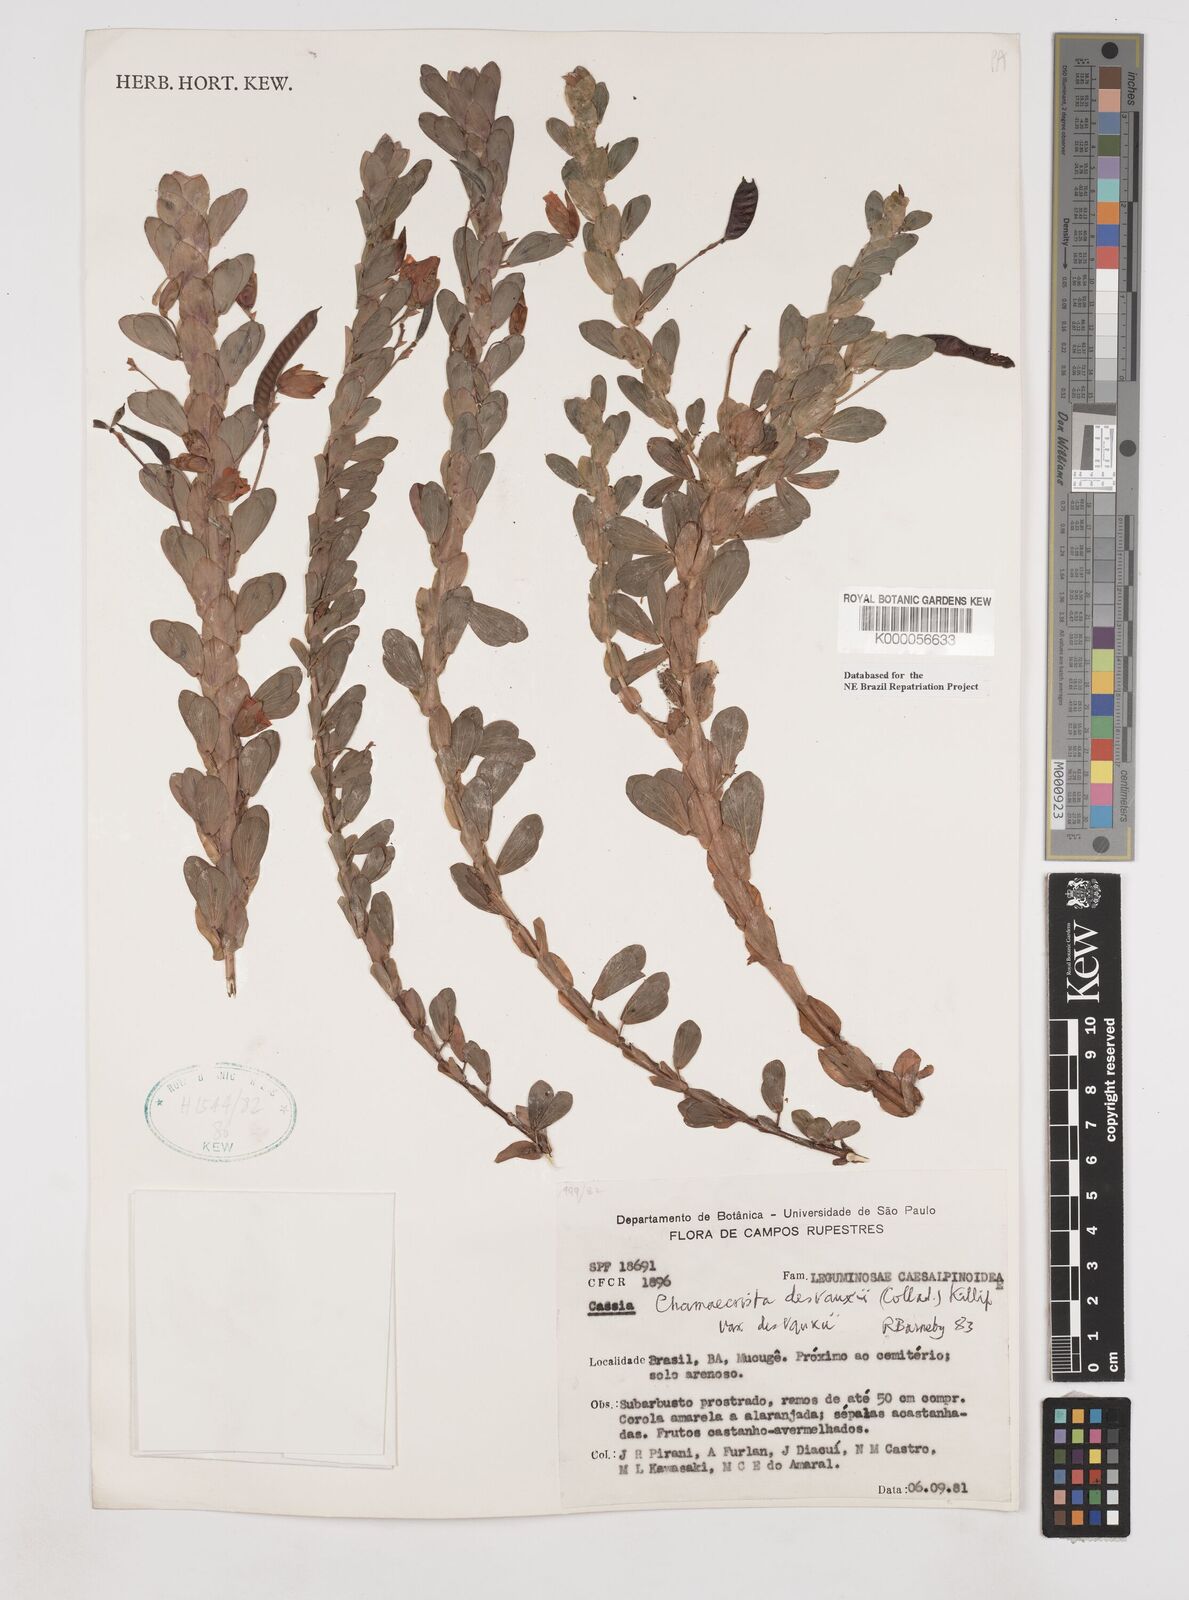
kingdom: Plantae
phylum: Tracheophyta
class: Magnoliopsida
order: Fabales
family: Fabaceae
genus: Chamaecrista
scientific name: Chamaecrista desvauxii
